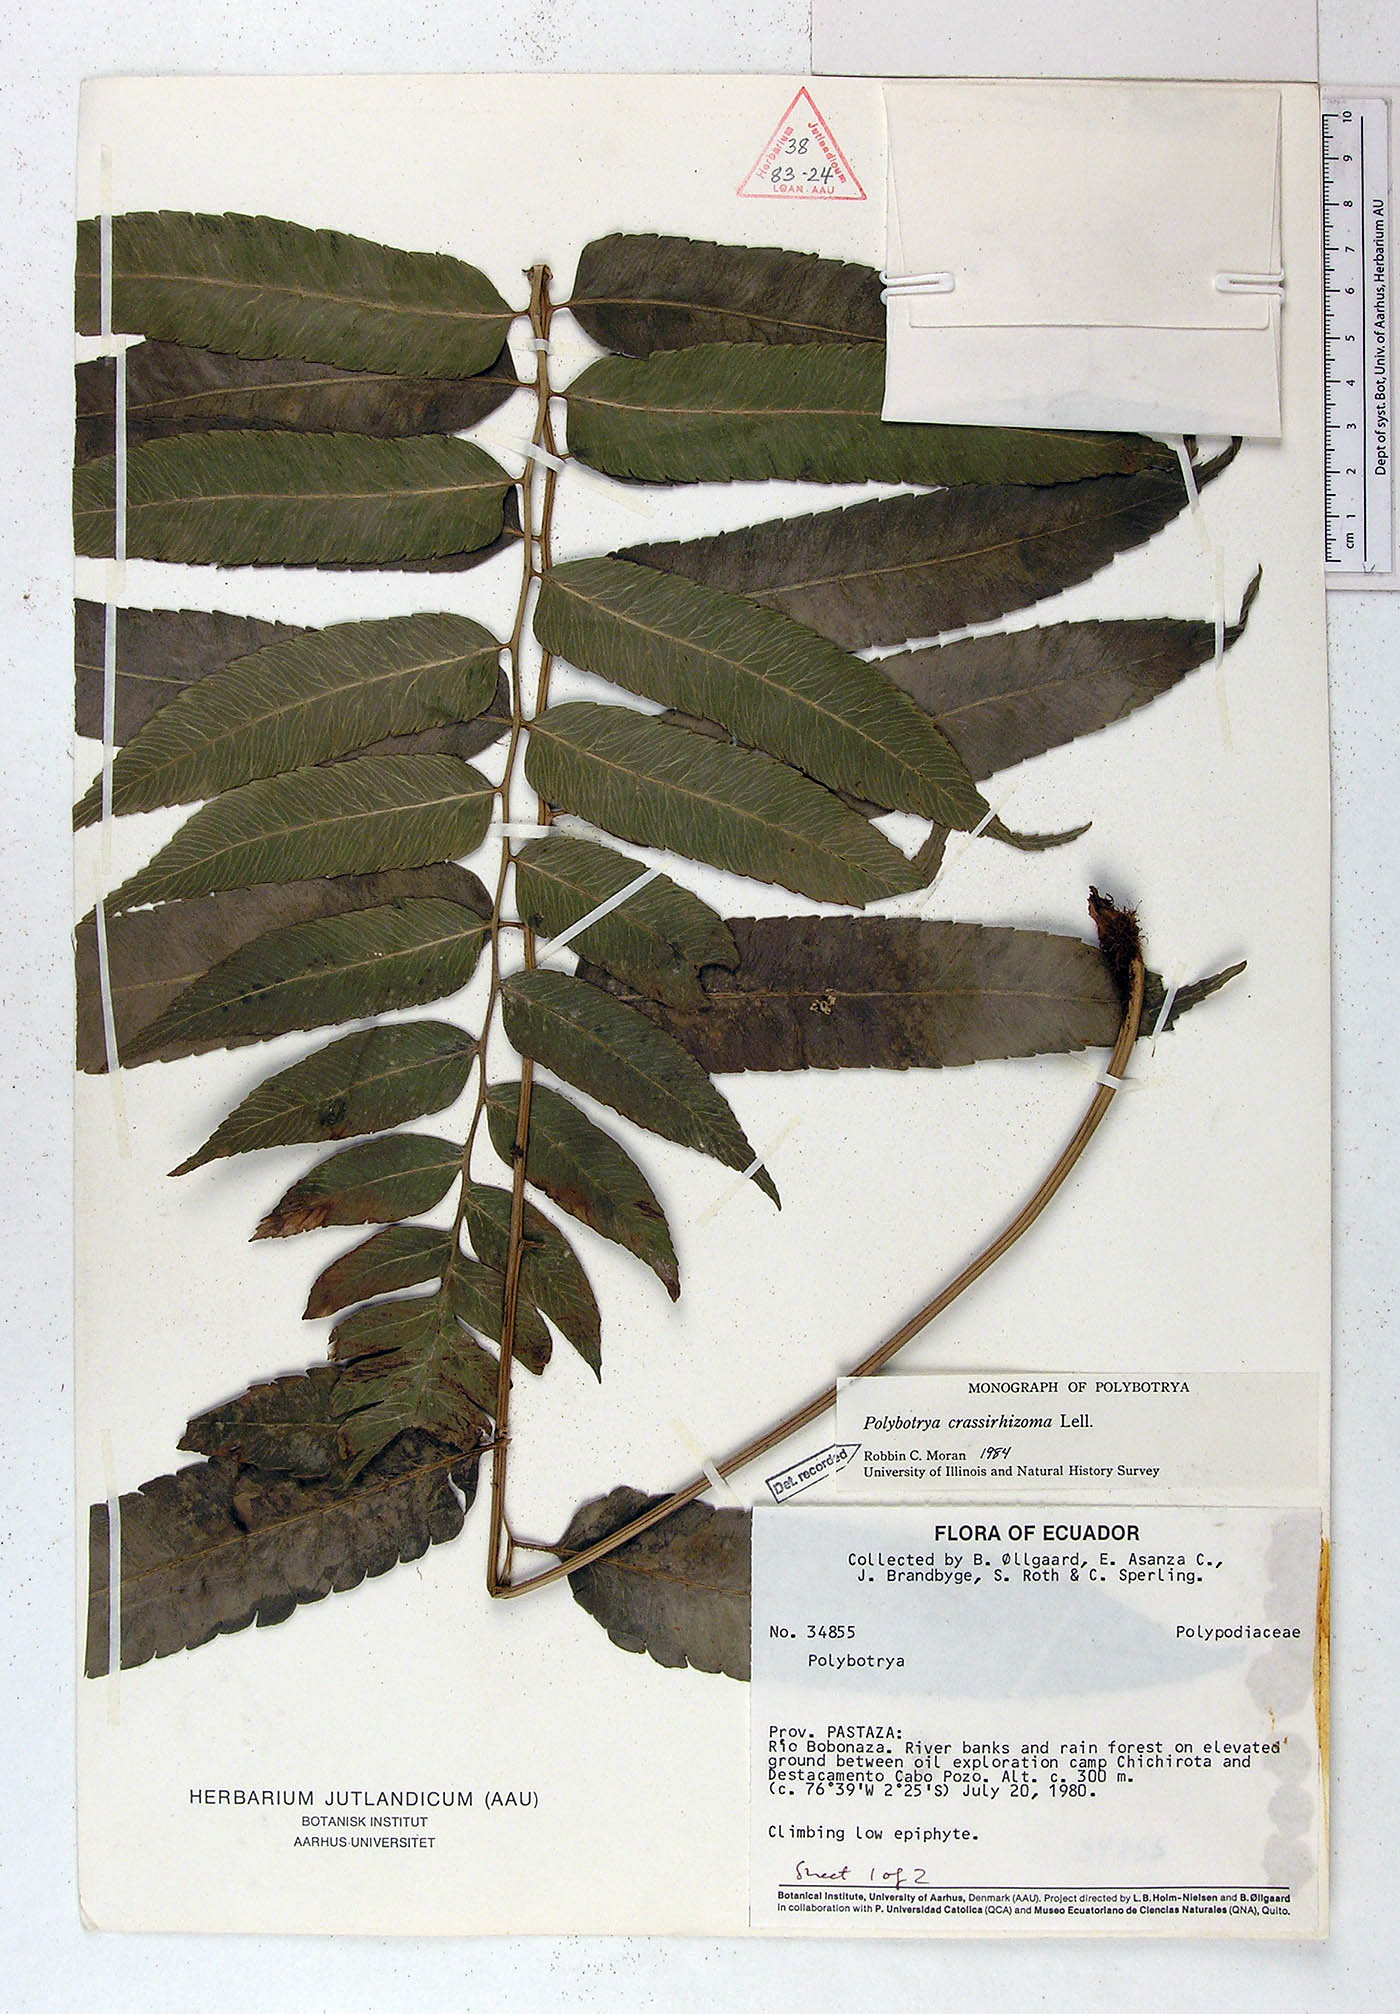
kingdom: Plantae
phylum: Tracheophyta
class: Polypodiopsida
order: Polypodiales
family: Dryopteridaceae
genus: Polybotrya
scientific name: Polybotrya crassirhizoma
